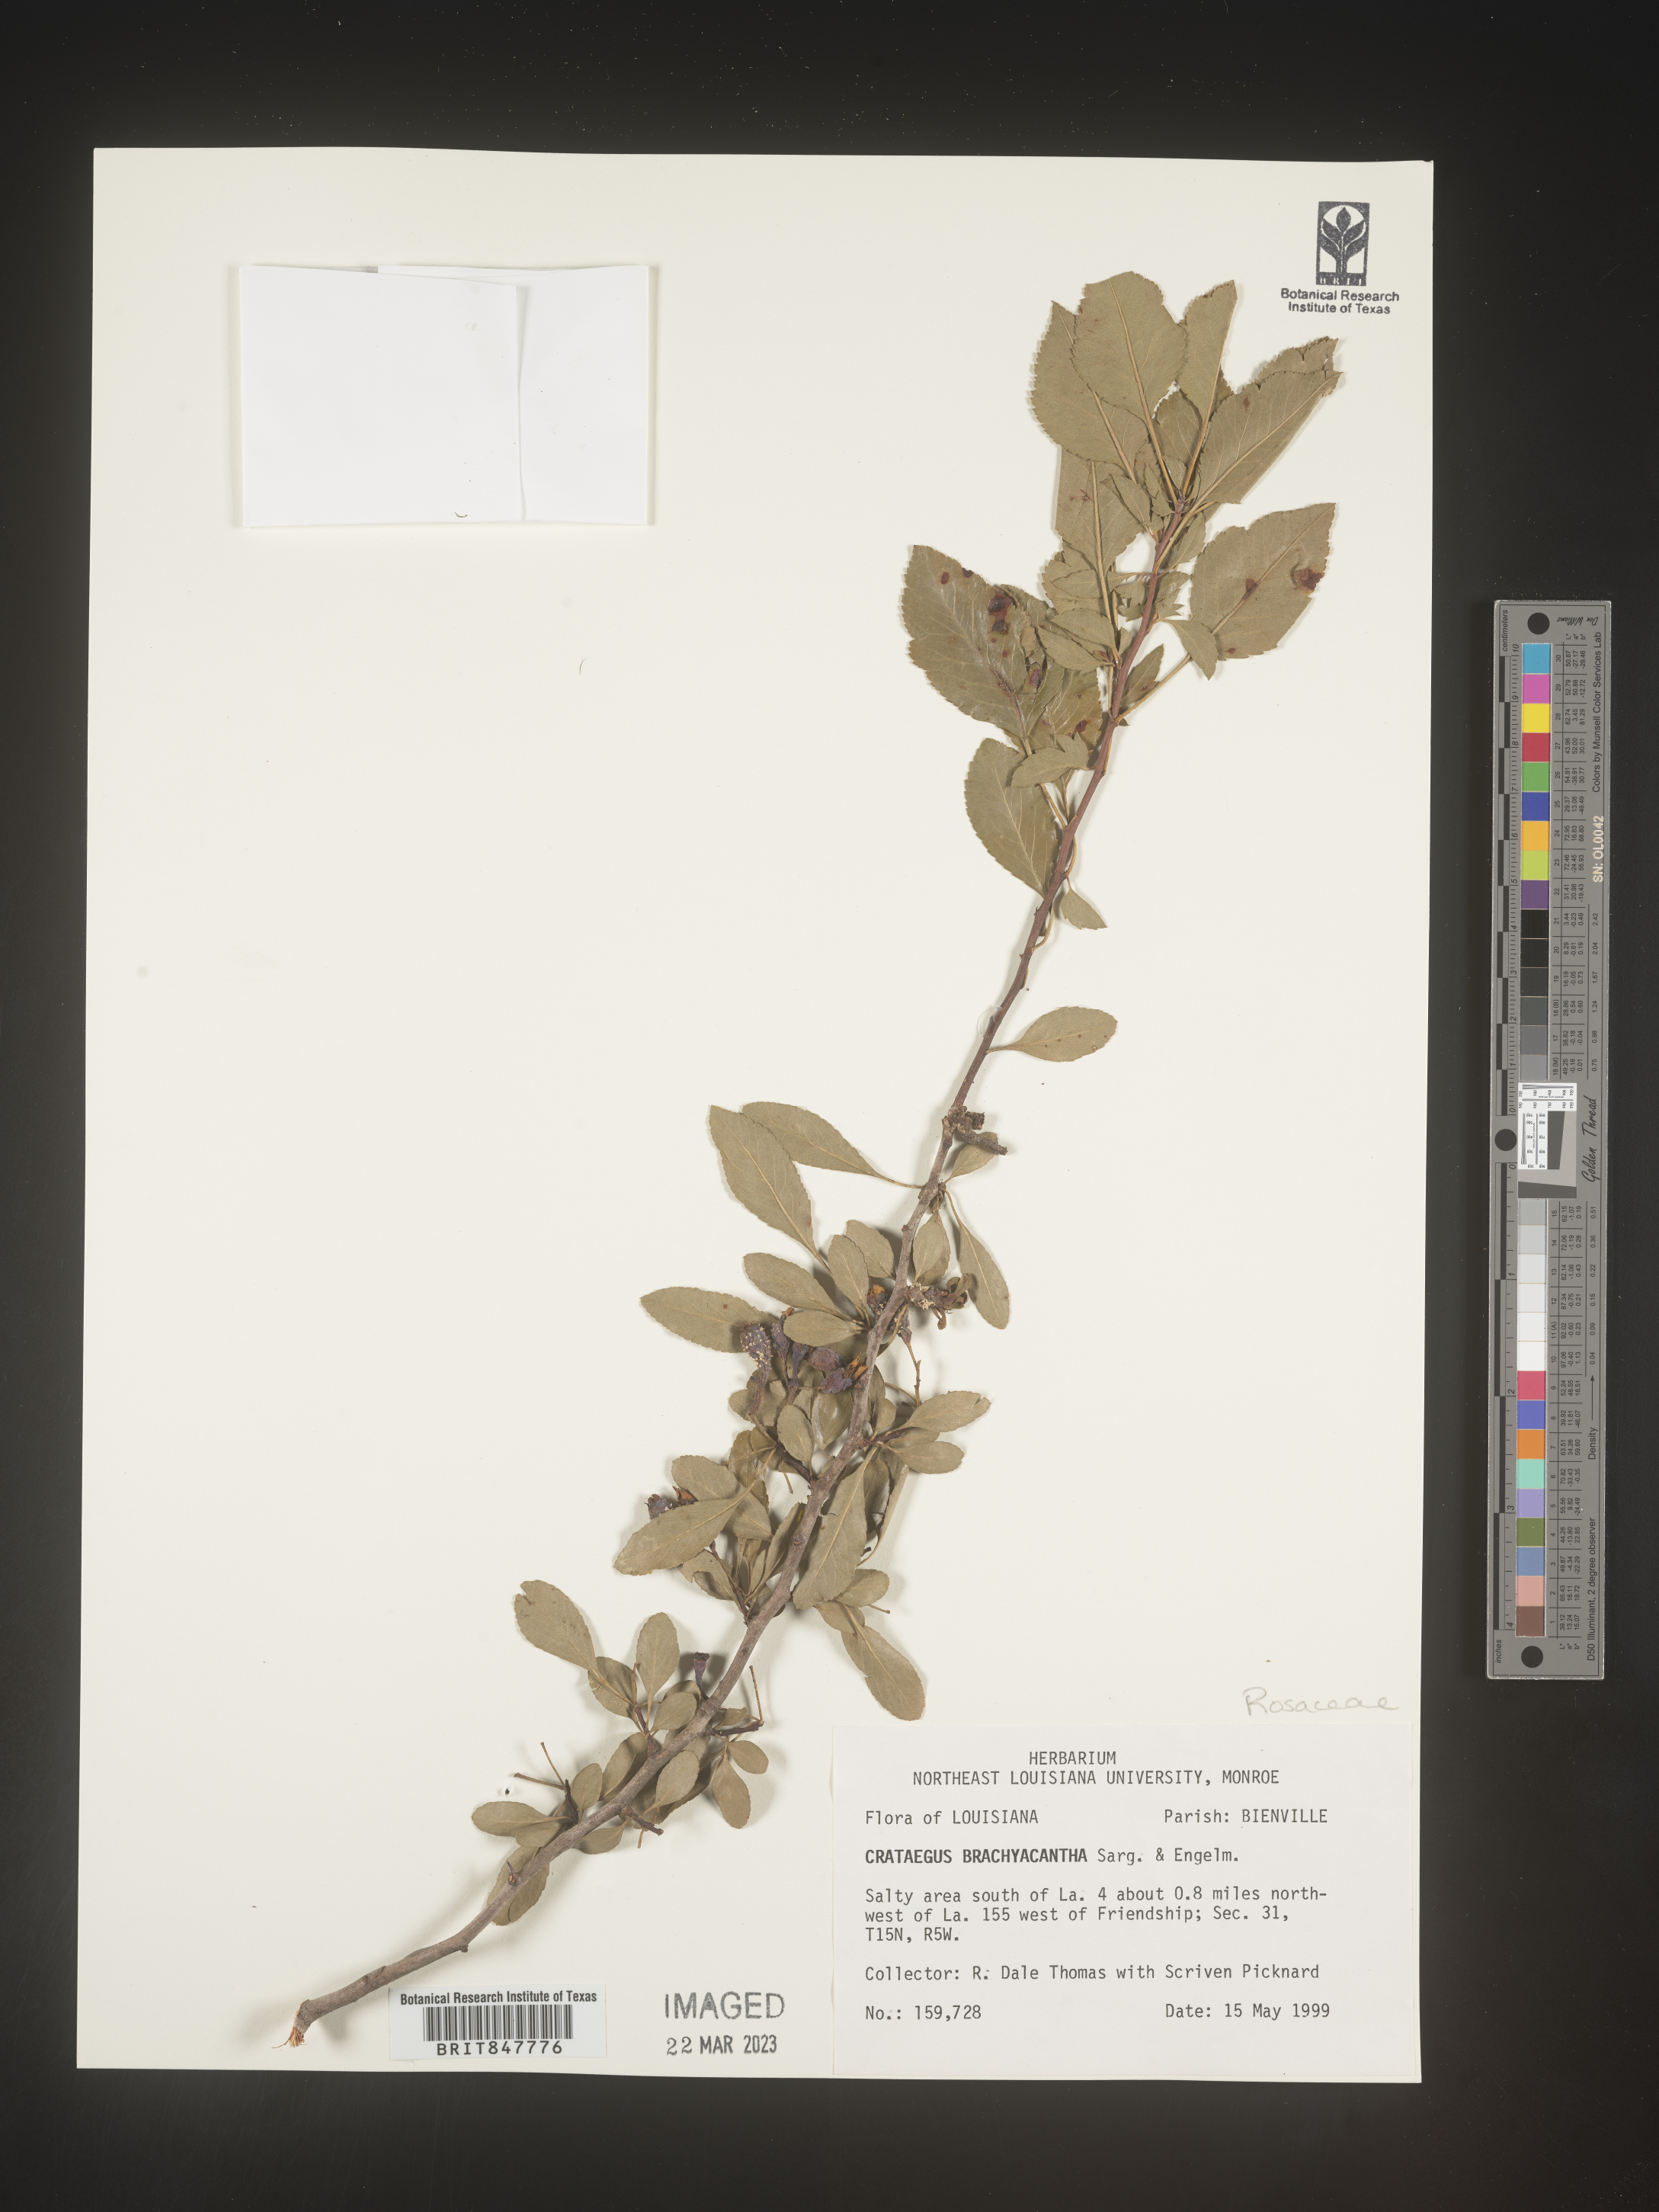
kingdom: Plantae
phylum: Tracheophyta
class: Magnoliopsida
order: Rosales
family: Rosaceae
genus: Crataegus
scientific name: Crataegus brachyacantha
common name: Blueberry-hawthorn
